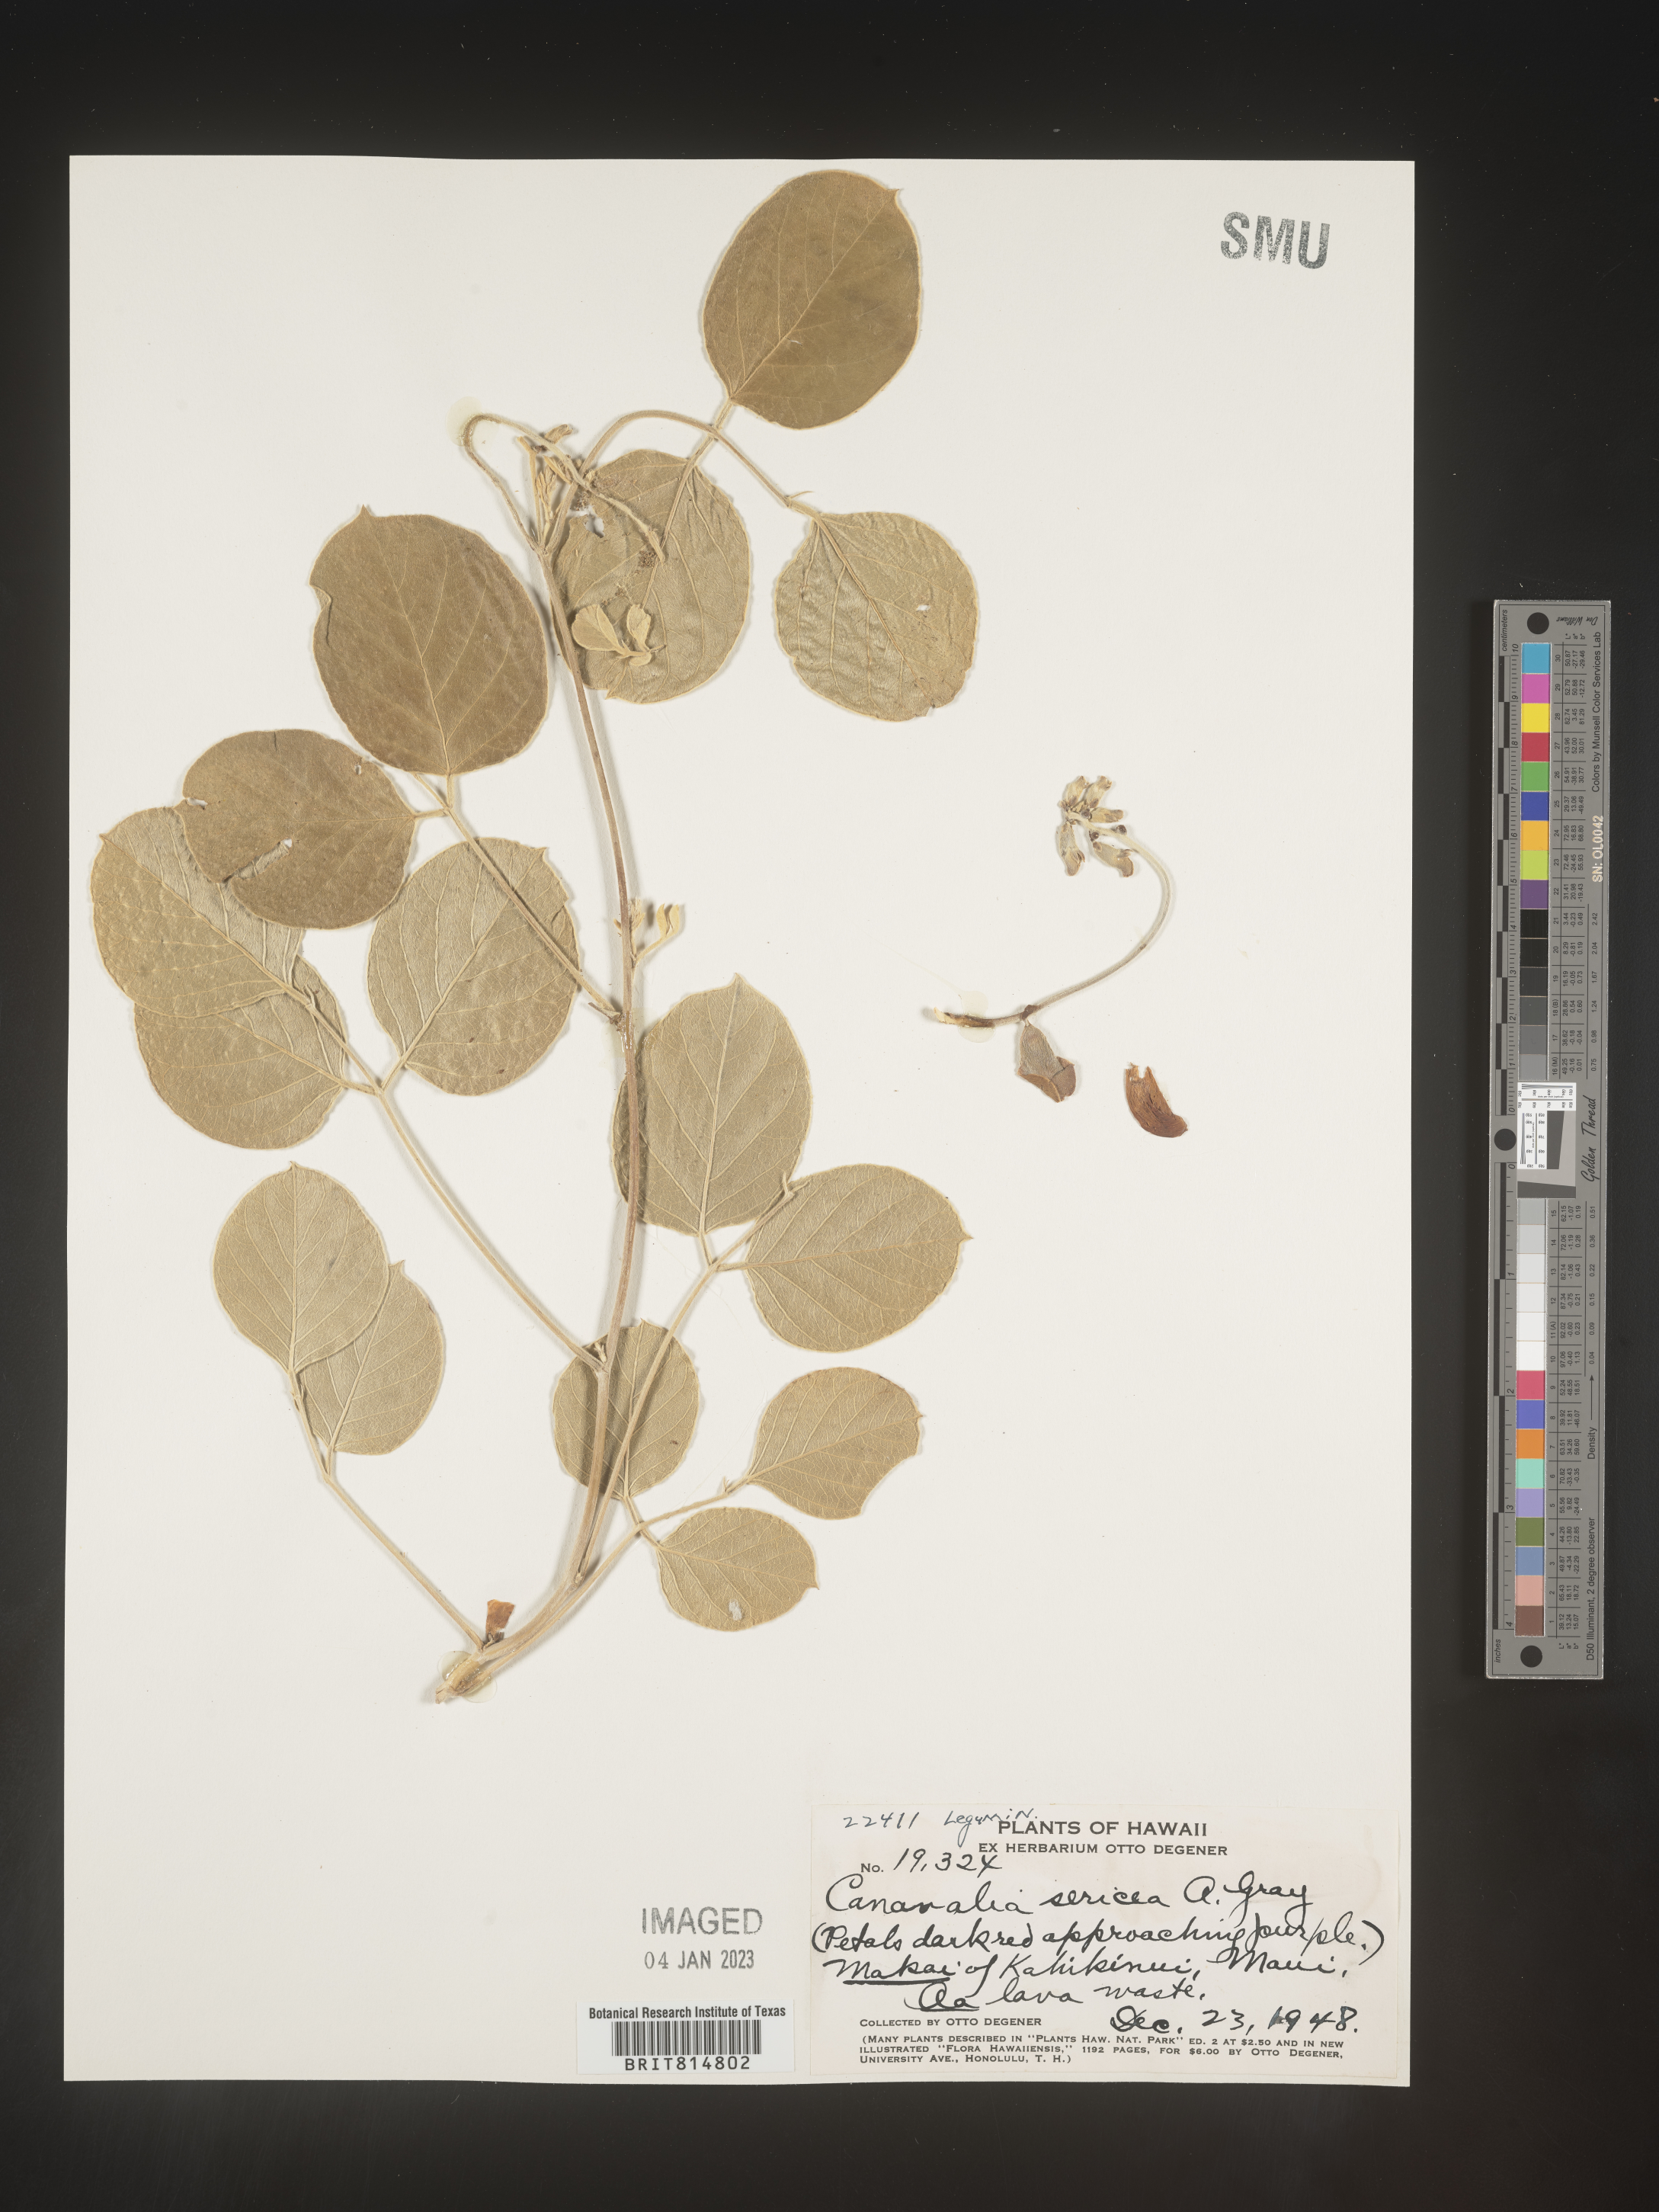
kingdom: Plantae
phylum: Tracheophyta
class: Magnoliopsida
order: Fabales
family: Fabaceae
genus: Canavalia
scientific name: Canavalia
